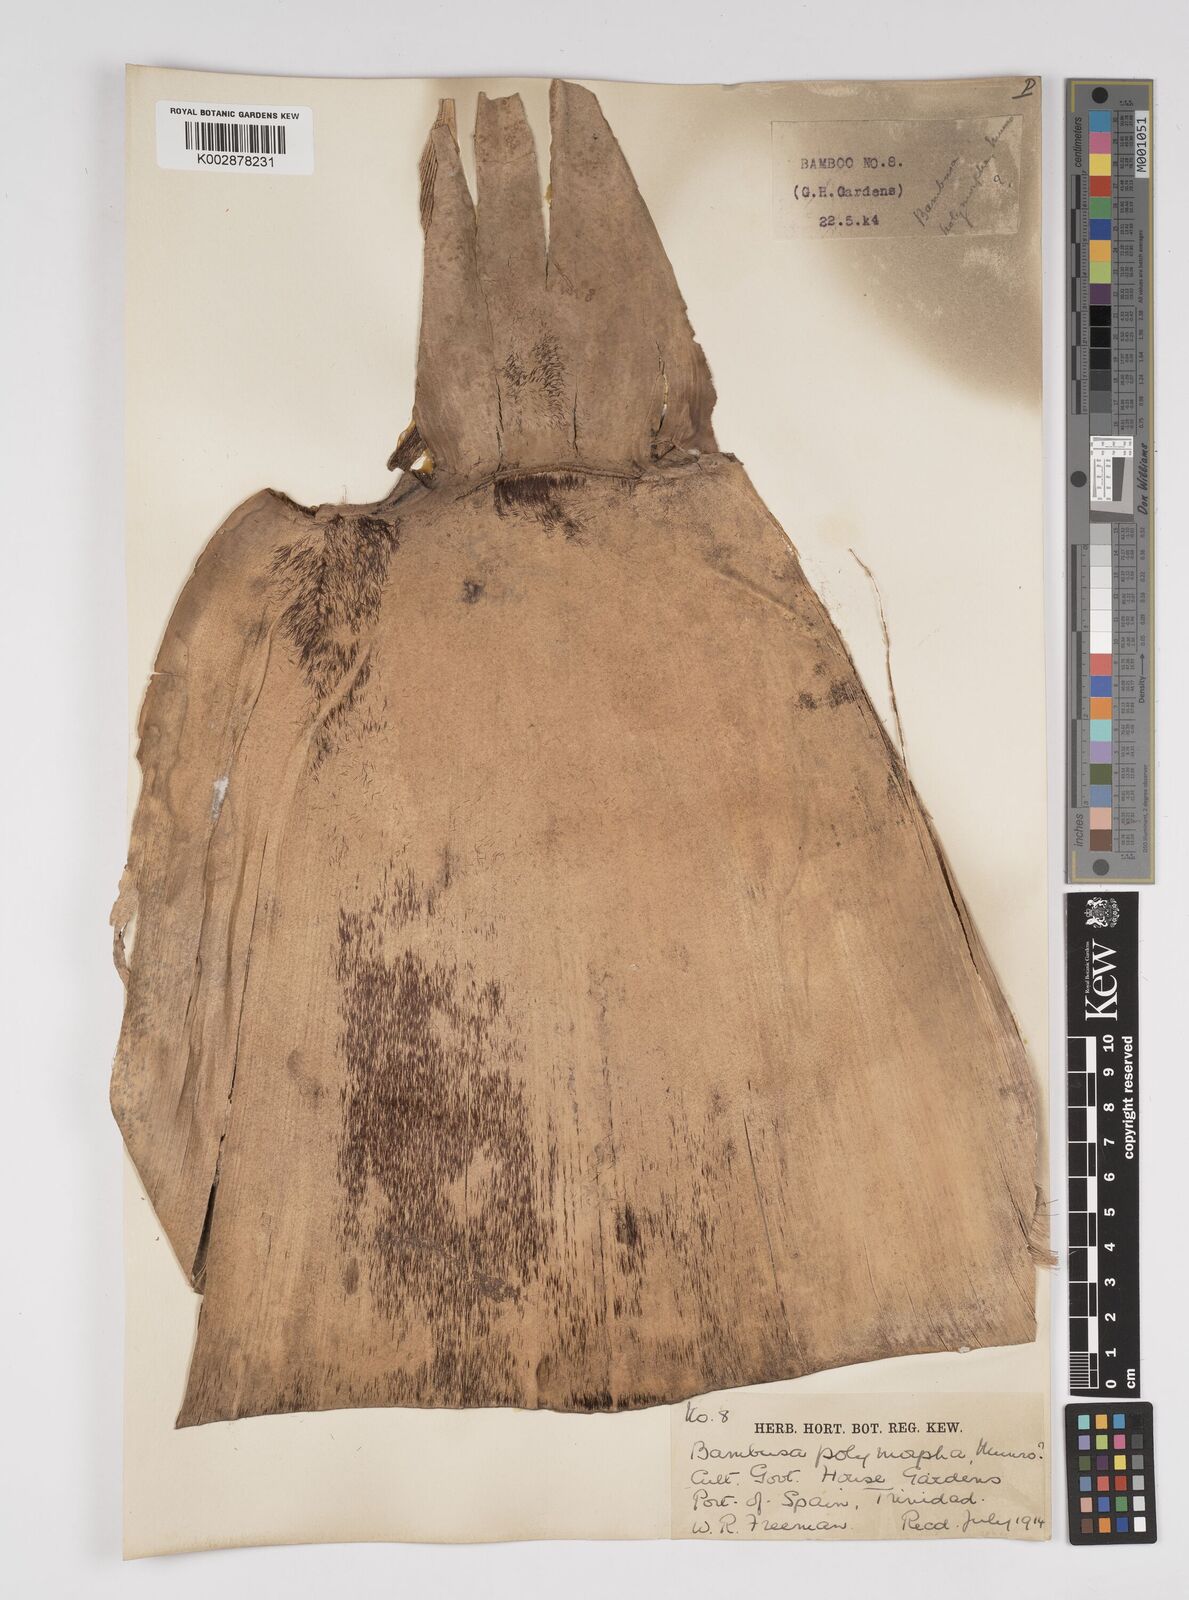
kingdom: Plantae
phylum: Tracheophyta
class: Liliopsida
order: Poales
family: Poaceae
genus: Bambusa
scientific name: Bambusa polymorpha
